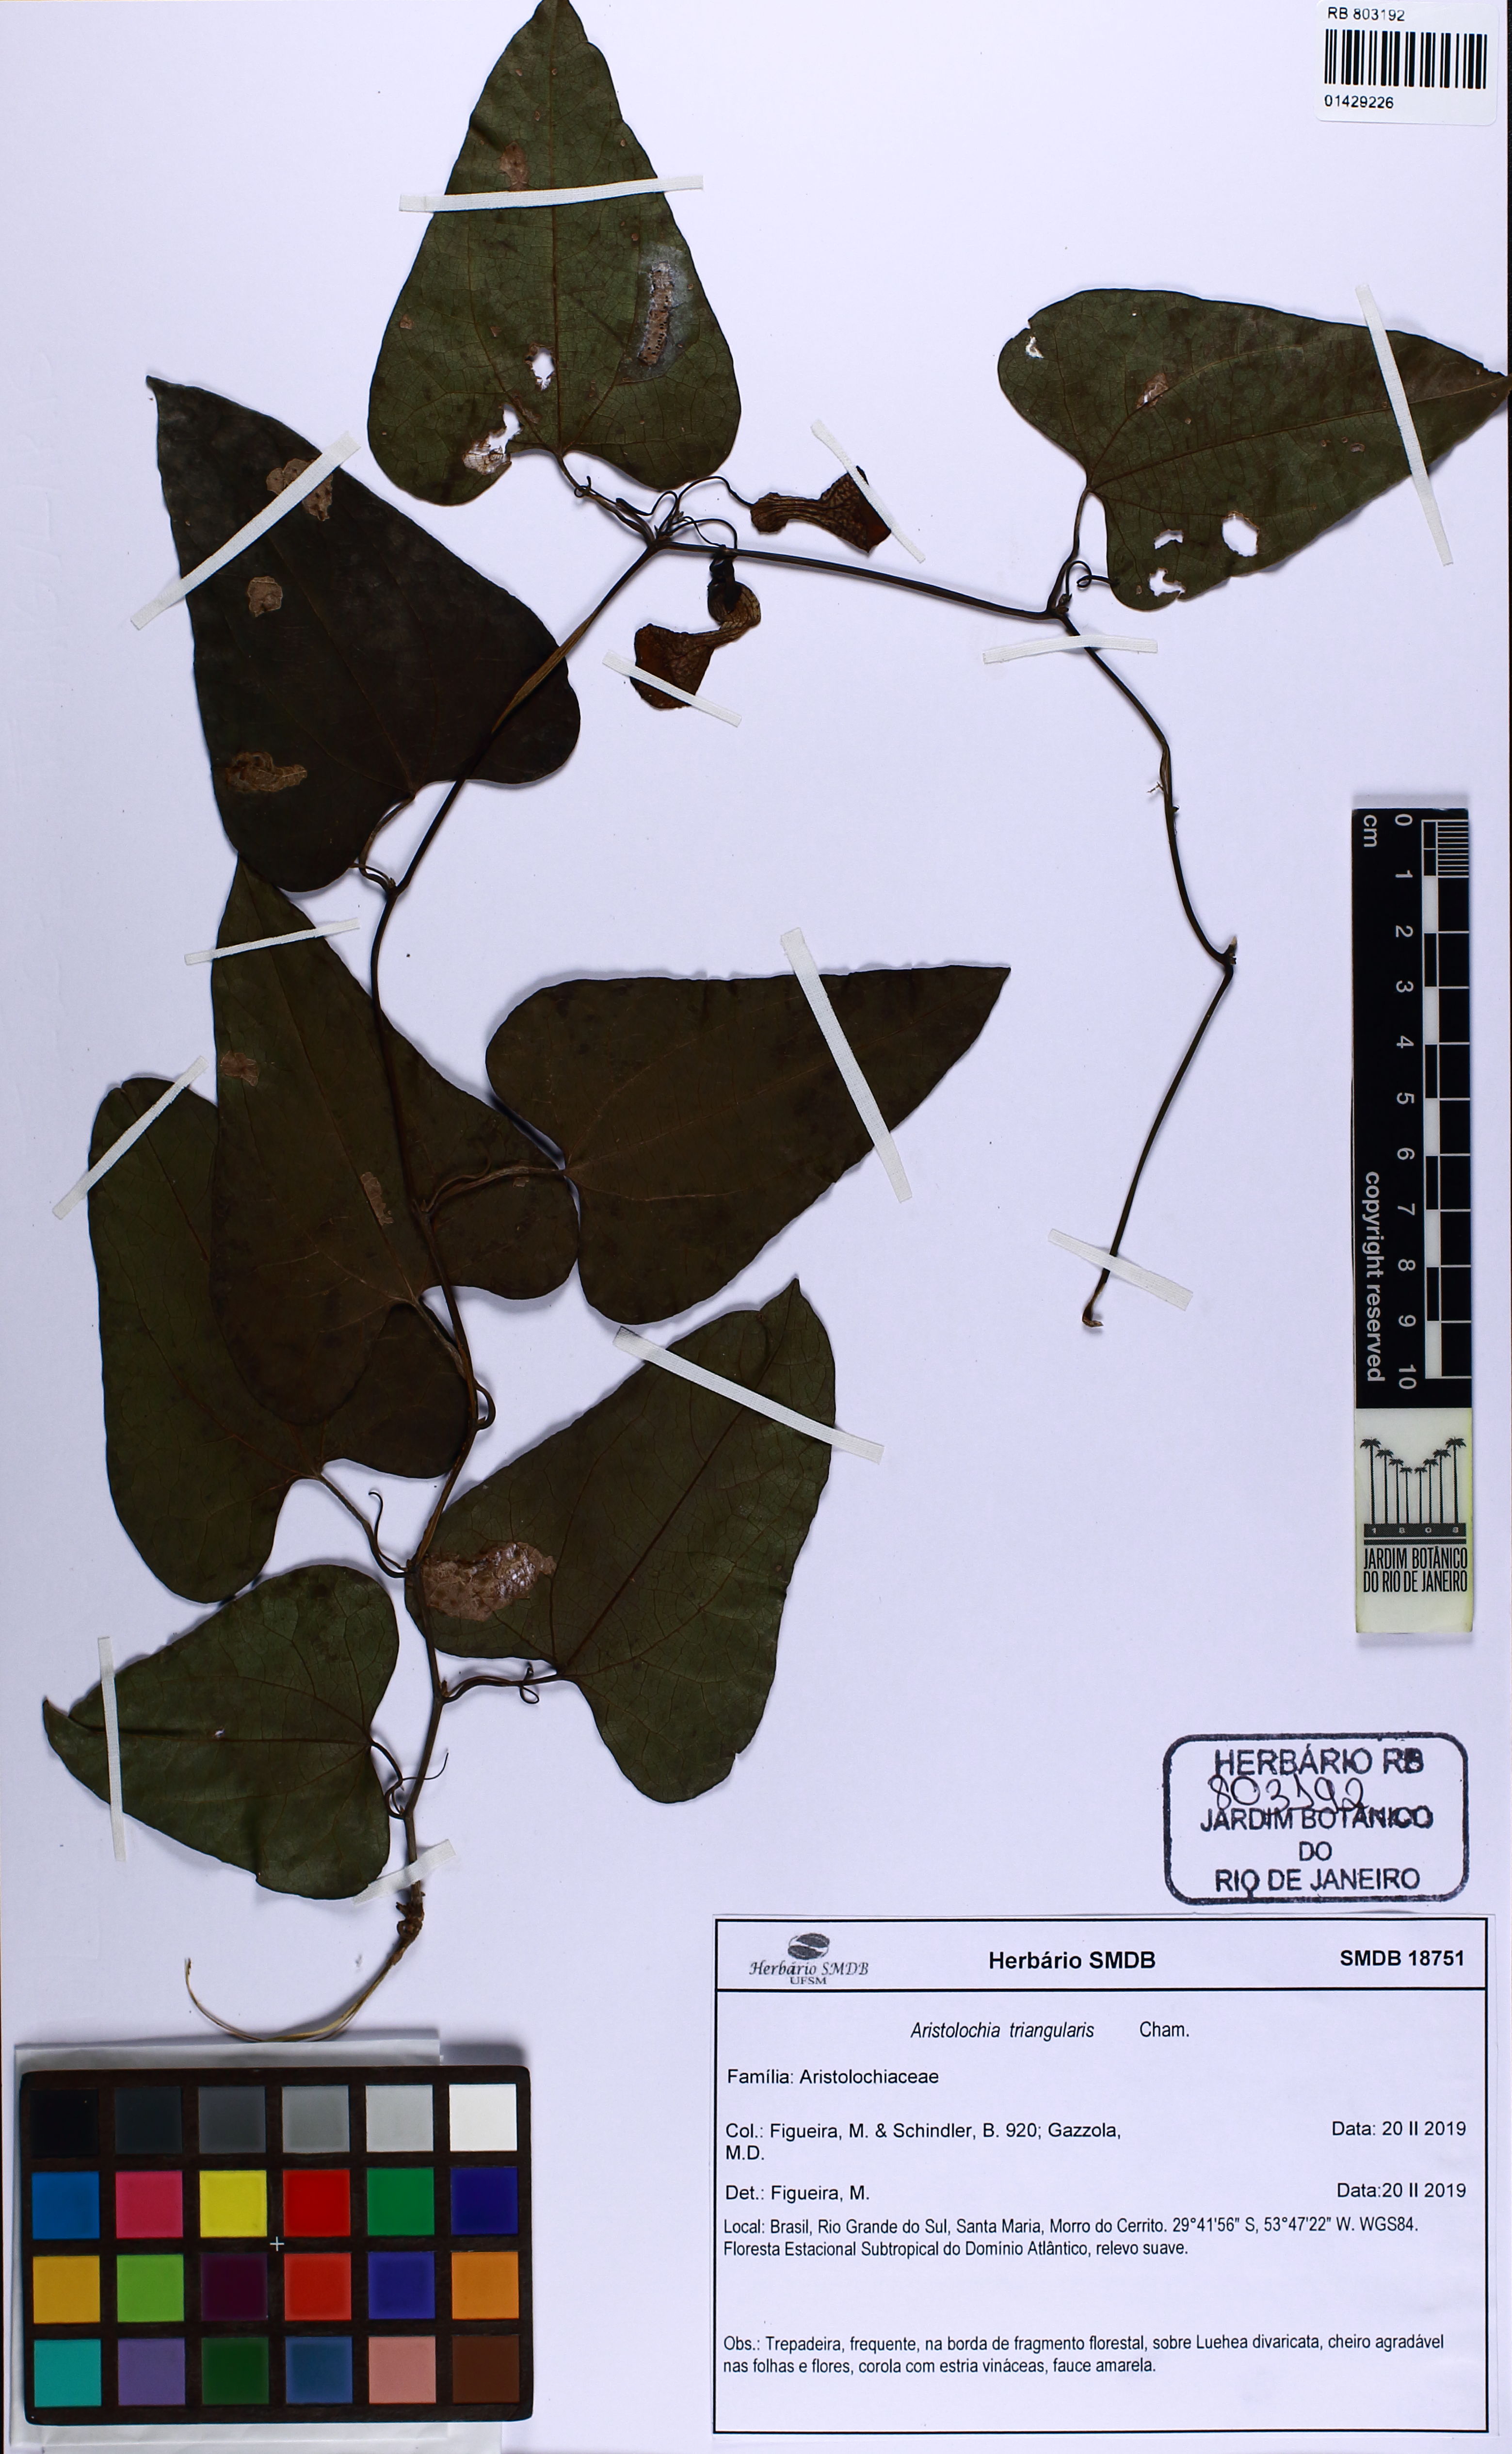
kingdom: Plantae
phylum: Tracheophyta
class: Magnoliopsida
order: Piperales
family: Aristolochiaceae
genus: Aristolochia
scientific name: Aristolochia triangularis
